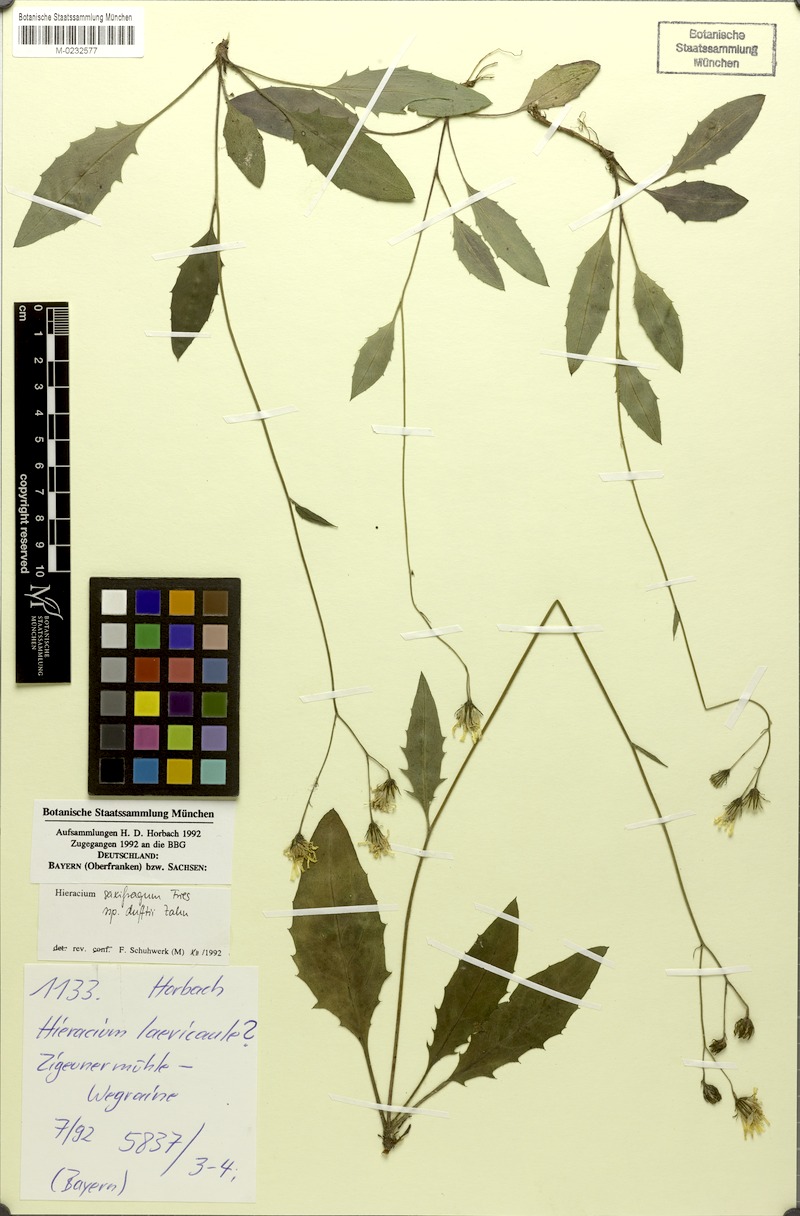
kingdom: Plantae
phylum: Tracheophyta
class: Magnoliopsida
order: Asterales
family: Asteraceae
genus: Hieracium
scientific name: Hieracium saxifragum
